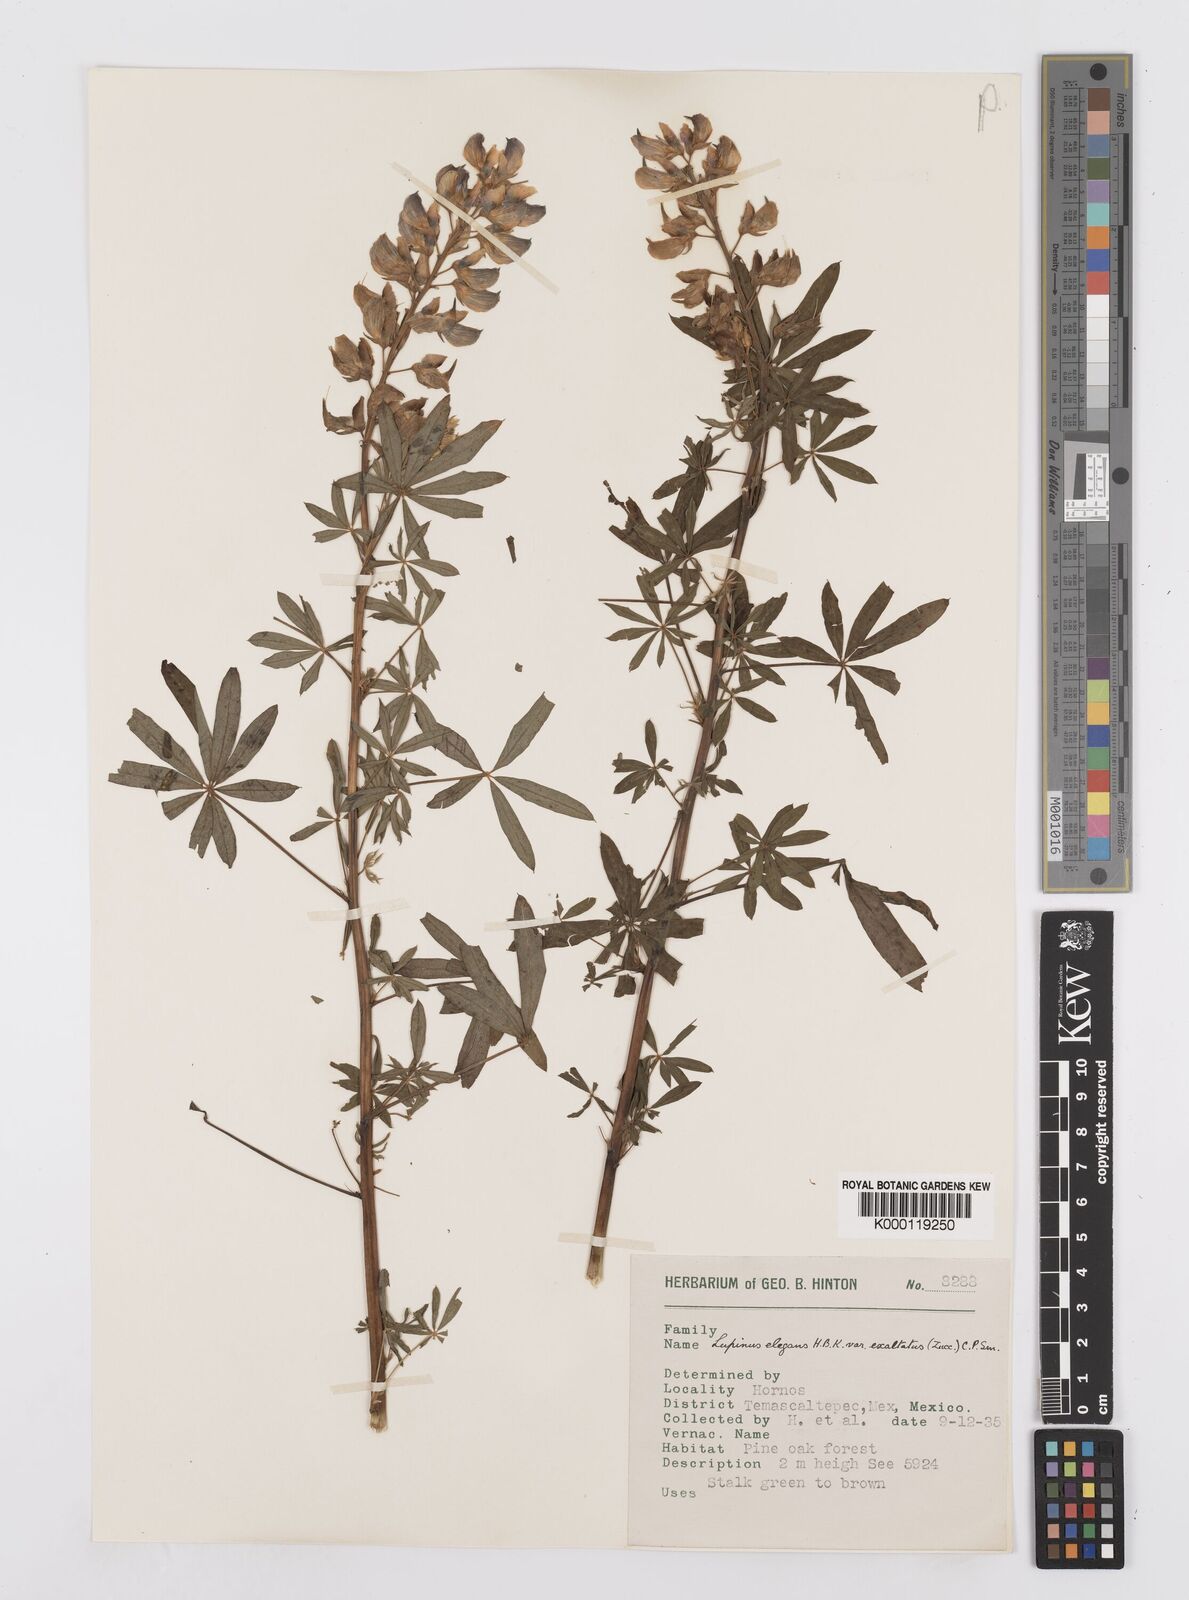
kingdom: Plantae
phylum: Tracheophyta
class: Magnoliopsida
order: Fabales
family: Fabaceae
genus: Lupinus
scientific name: Lupinus elegans
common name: Mexican lupine
